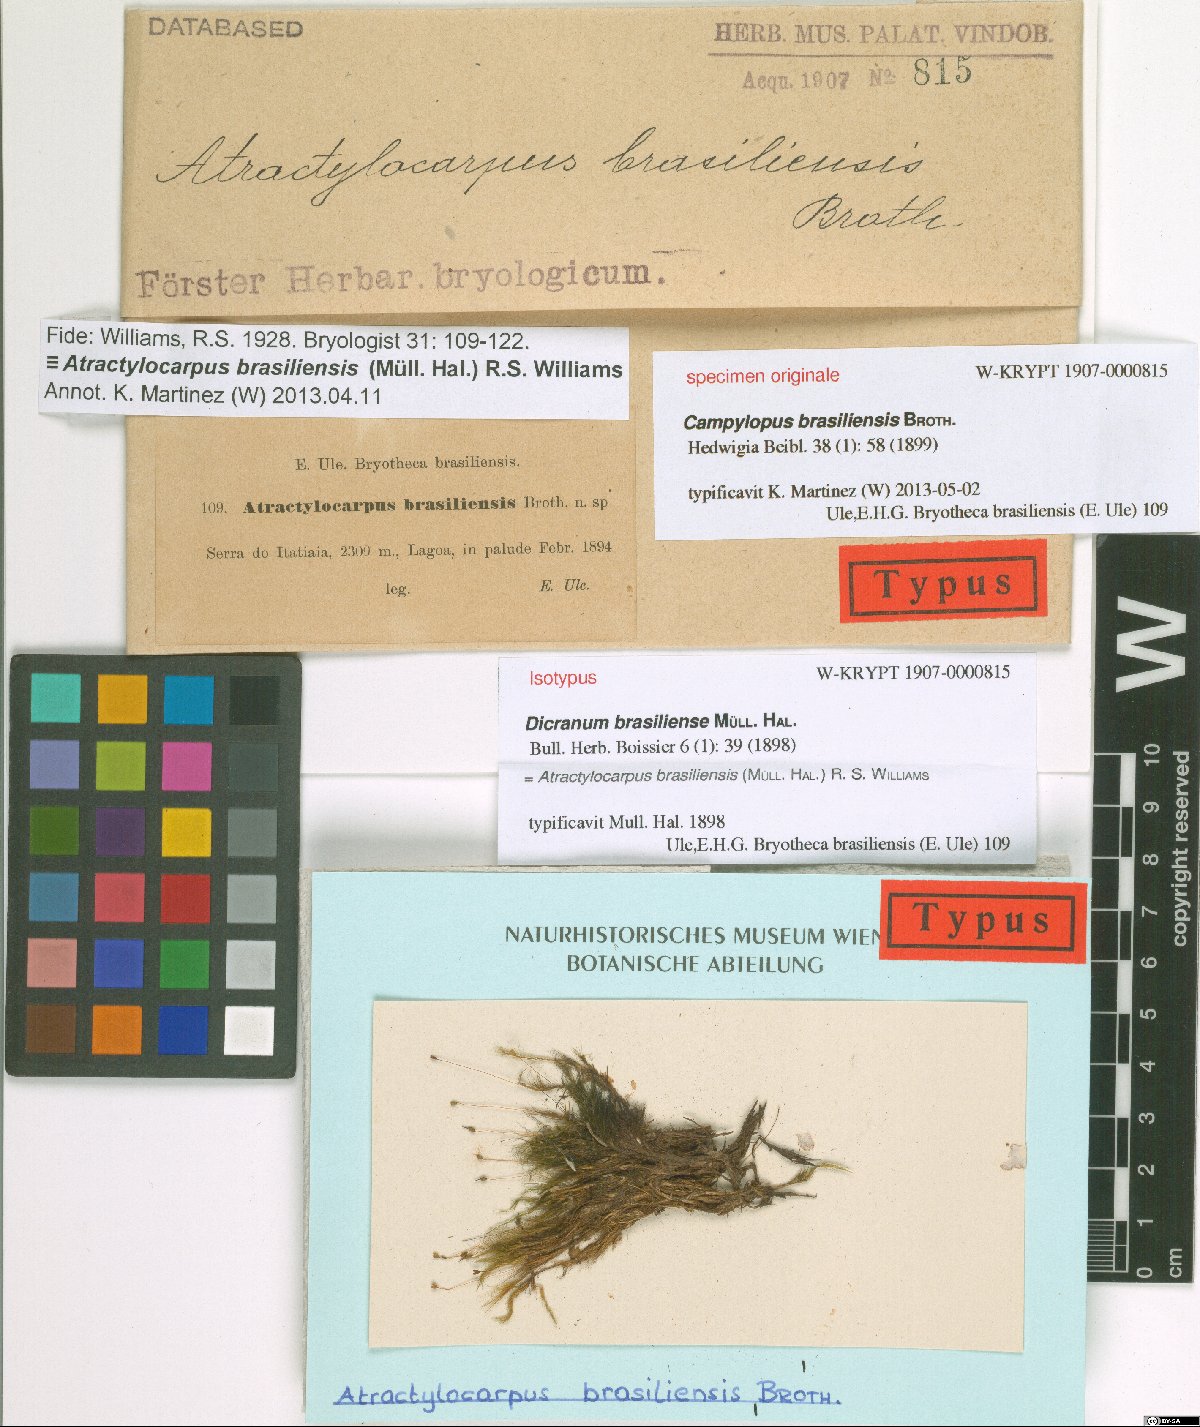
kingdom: Plantae
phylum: Bryophyta
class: Bryopsida
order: Dicranales
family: Leucobryaceae
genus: Atractylocarpus
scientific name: Atractylocarpus brasiliensis
